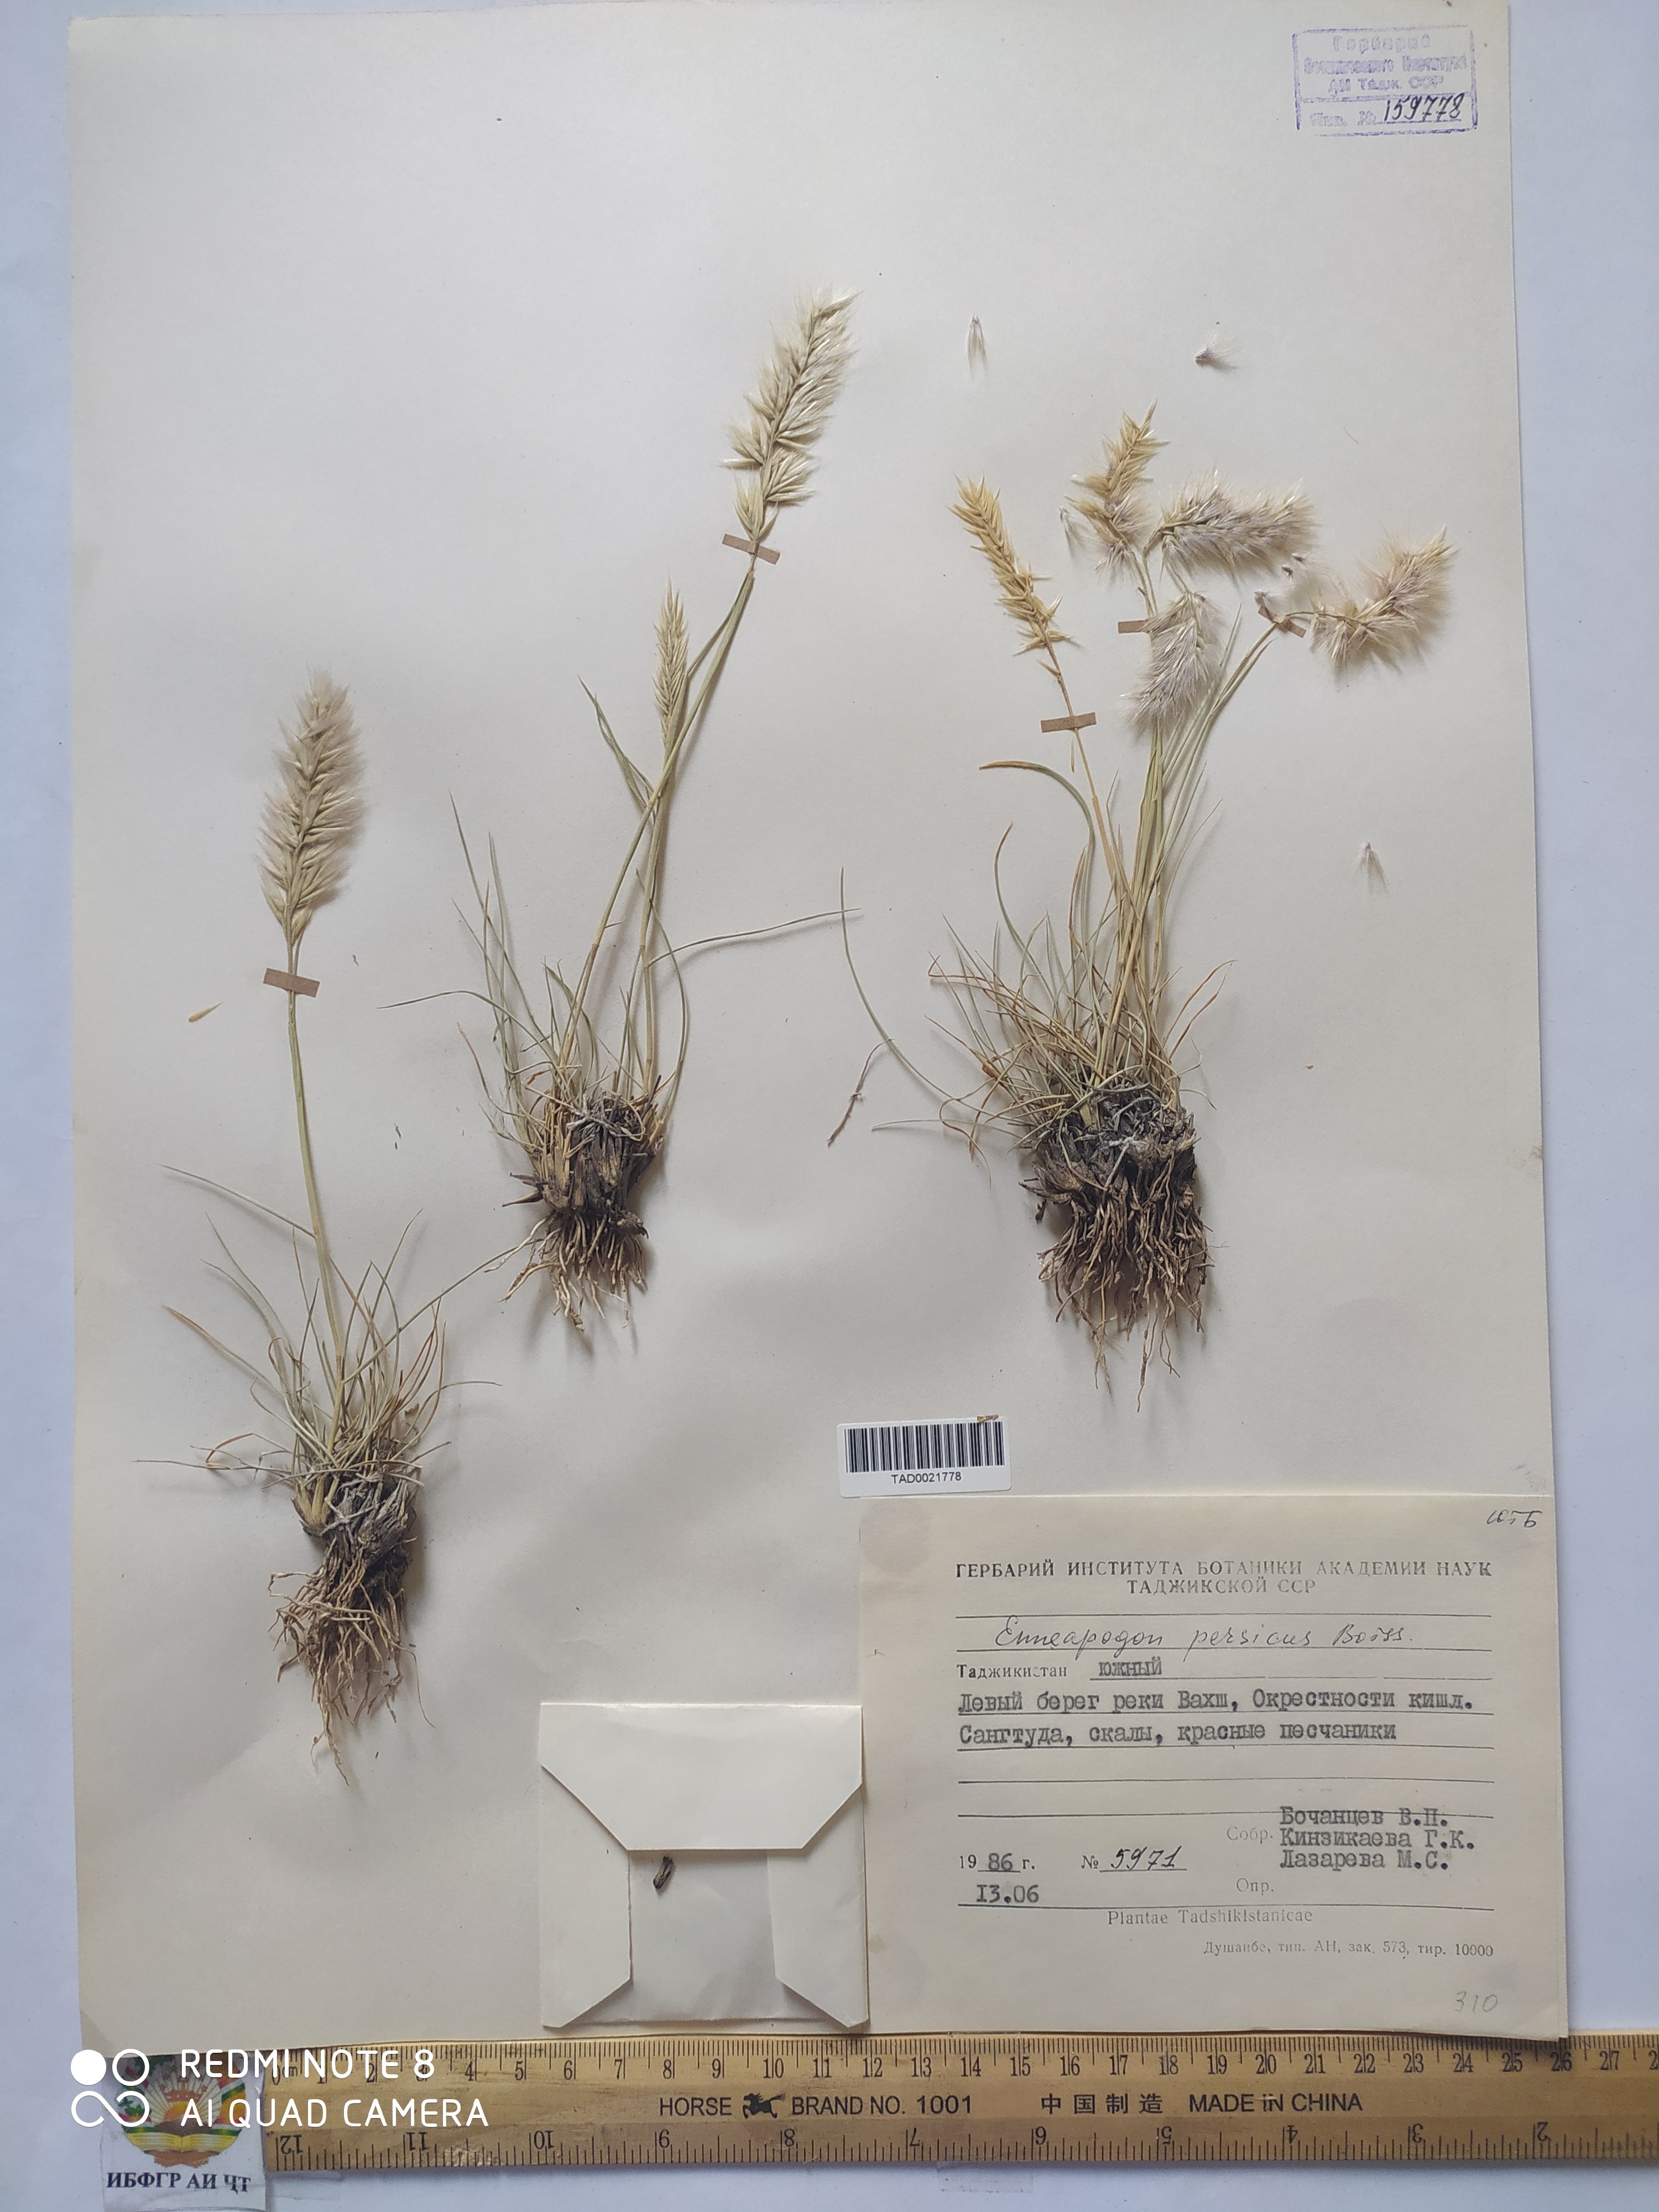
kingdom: Plantae
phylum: Tracheophyta
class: Liliopsida
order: Poales
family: Poaceae
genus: Enneapogon
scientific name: Enneapogon persicus
